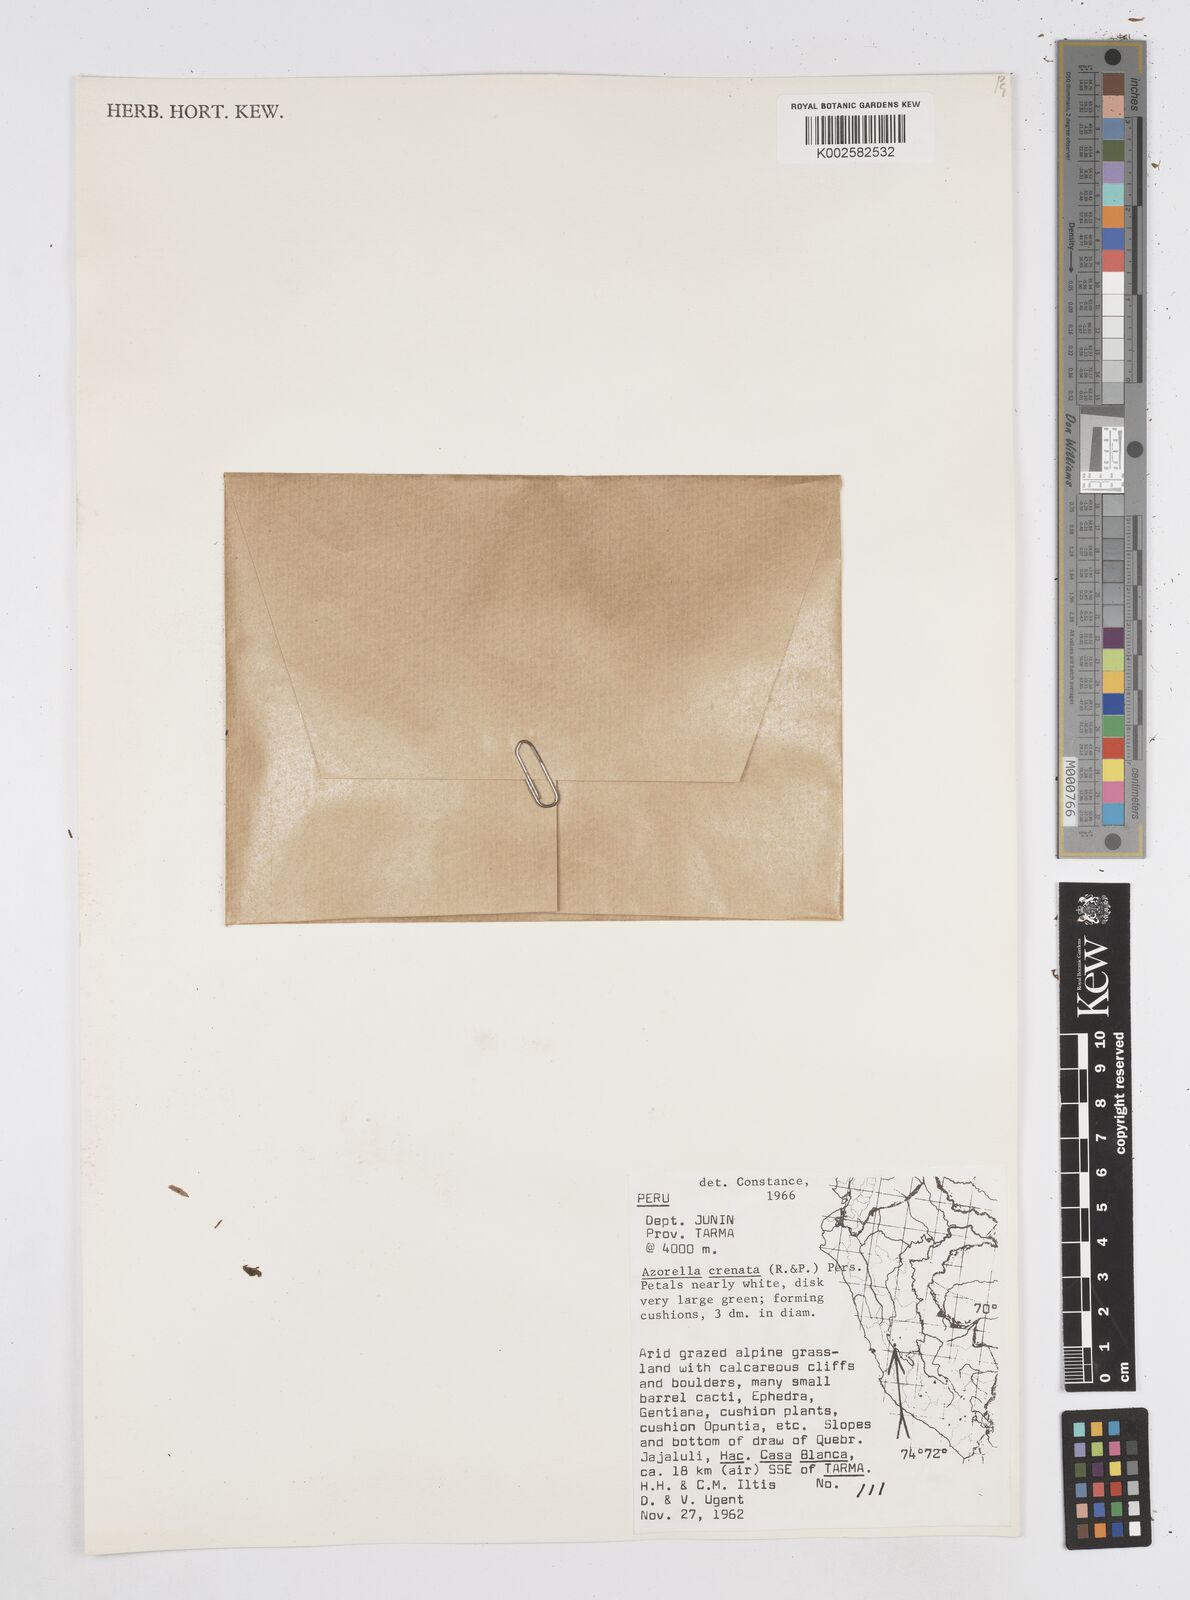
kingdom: Plantae
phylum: Tracheophyta
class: Magnoliopsida
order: Apiales
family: Apiaceae
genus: Azorella
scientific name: Azorella crenata
